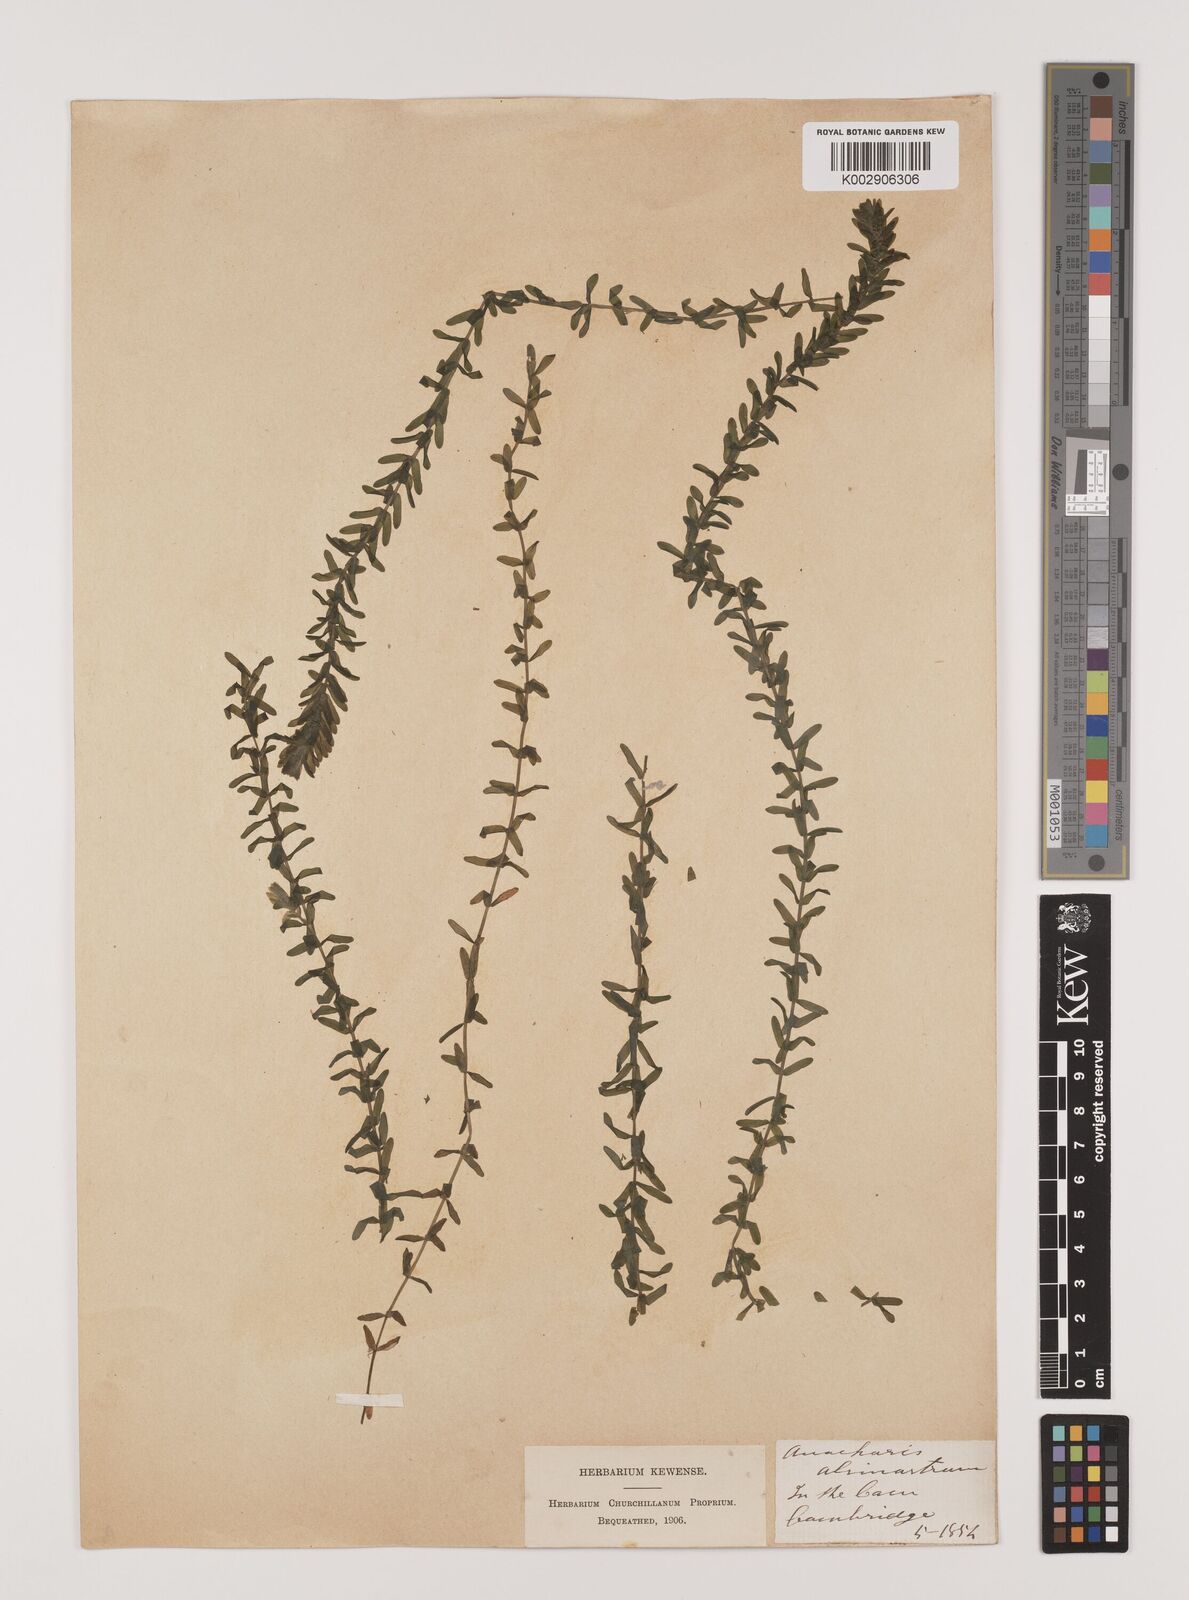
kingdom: Plantae
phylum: Tracheophyta
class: Liliopsida
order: Alismatales
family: Hydrocharitaceae
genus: Elodea
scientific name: Elodea canadensis
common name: Canadian waterweed
